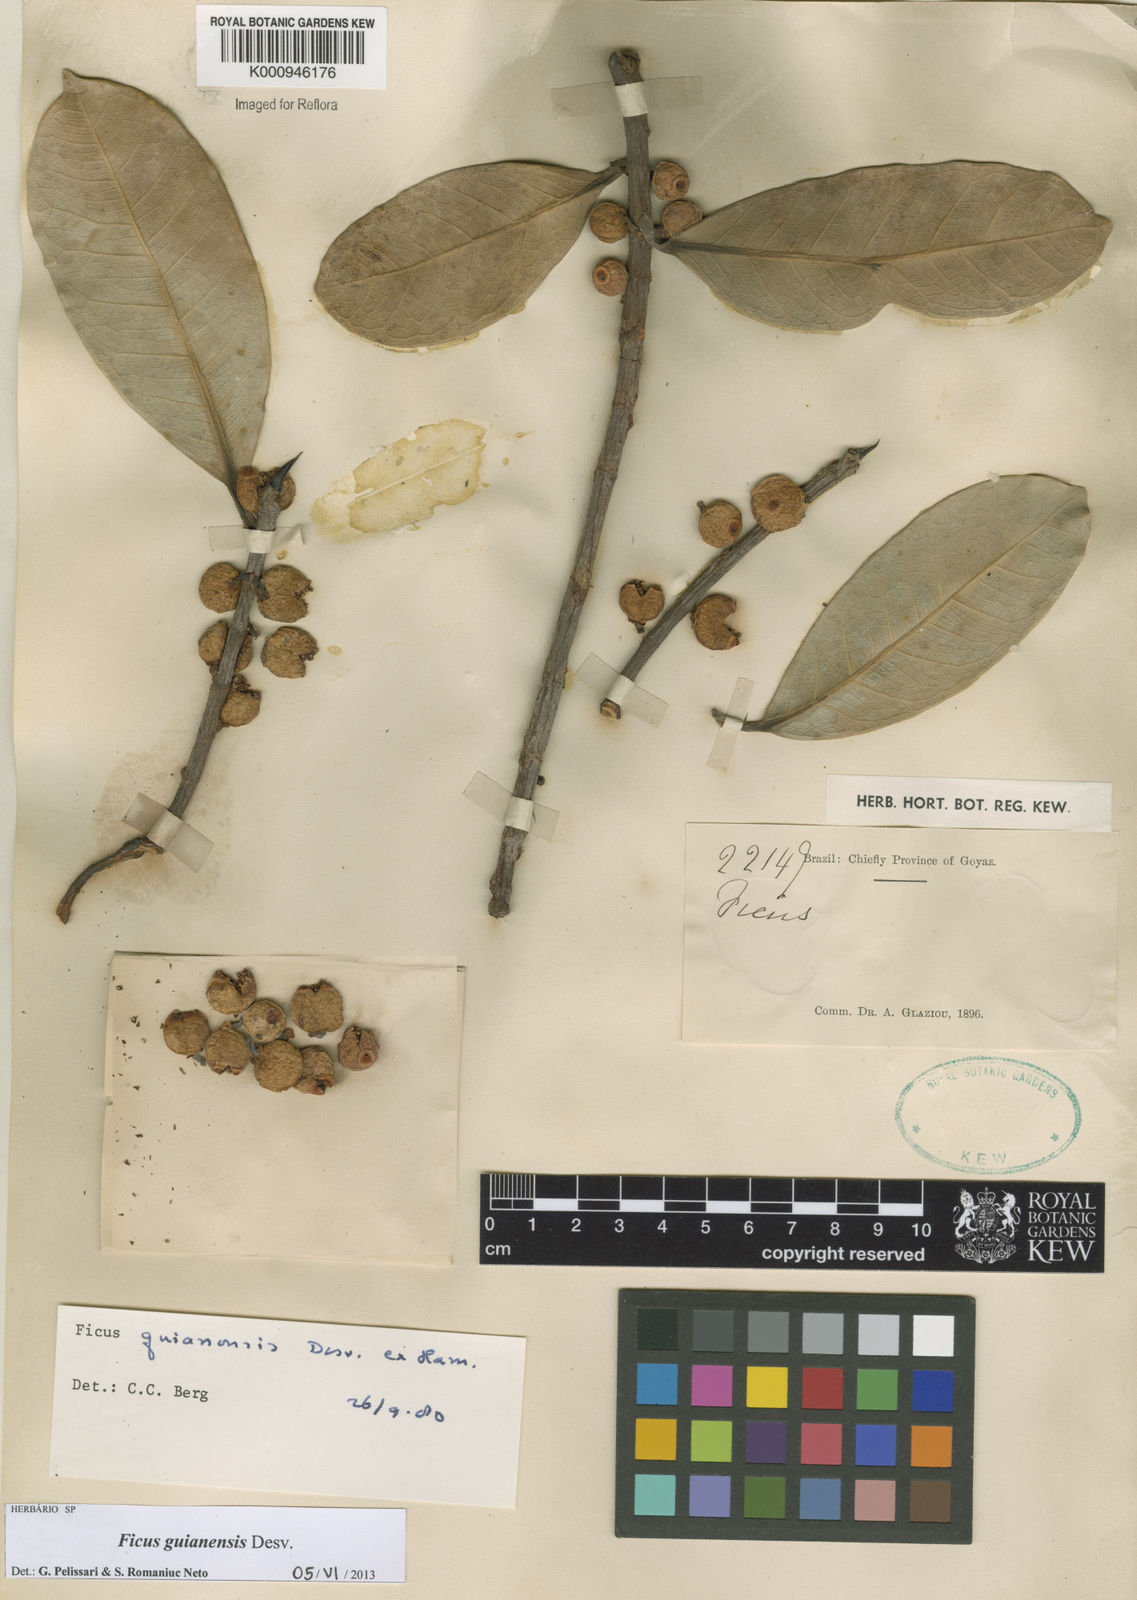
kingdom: Plantae
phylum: Tracheophyta
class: Magnoliopsida
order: Rosales
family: Moraceae
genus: Ficus
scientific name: Ficus americana
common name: Jamaican cherry fig
